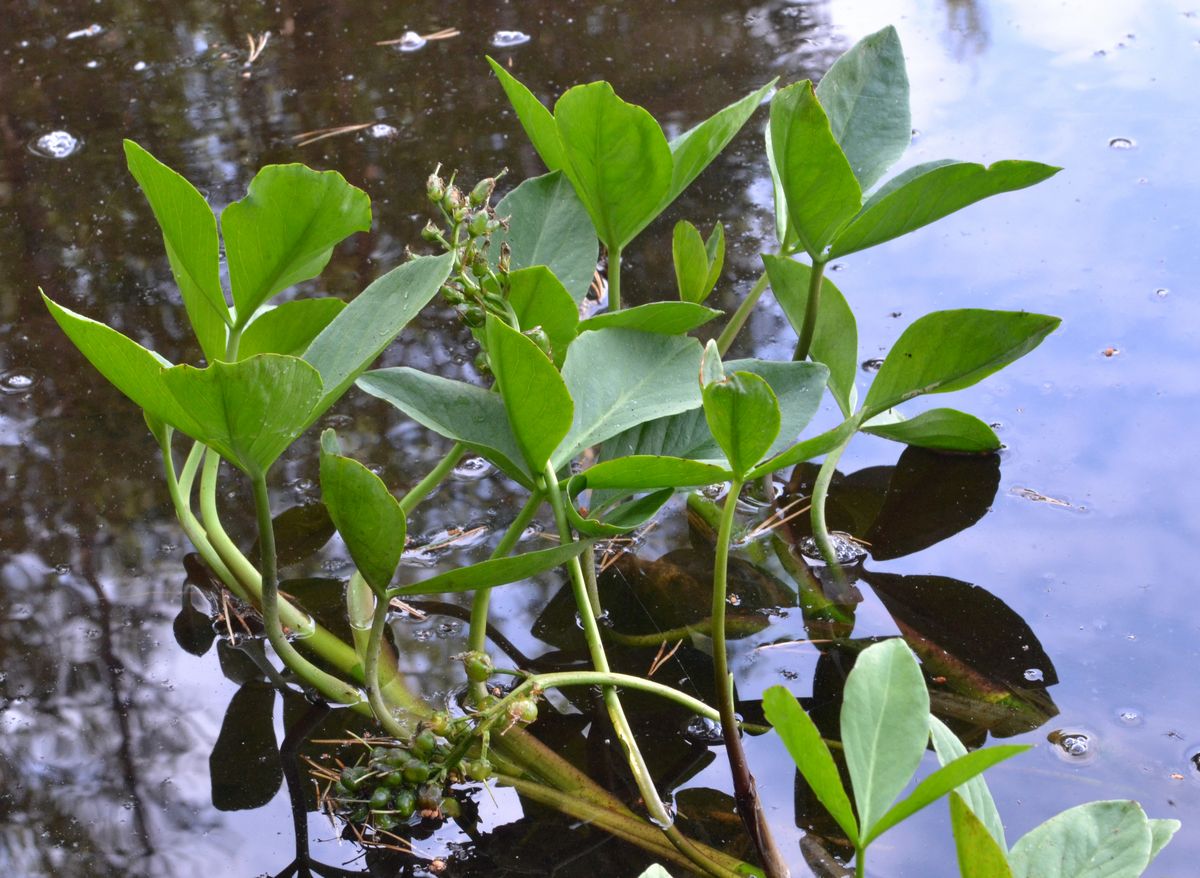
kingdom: Plantae
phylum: Tracheophyta
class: Magnoliopsida
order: Asterales
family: Menyanthaceae
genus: Menyanthes
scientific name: Menyanthes trifoliata
